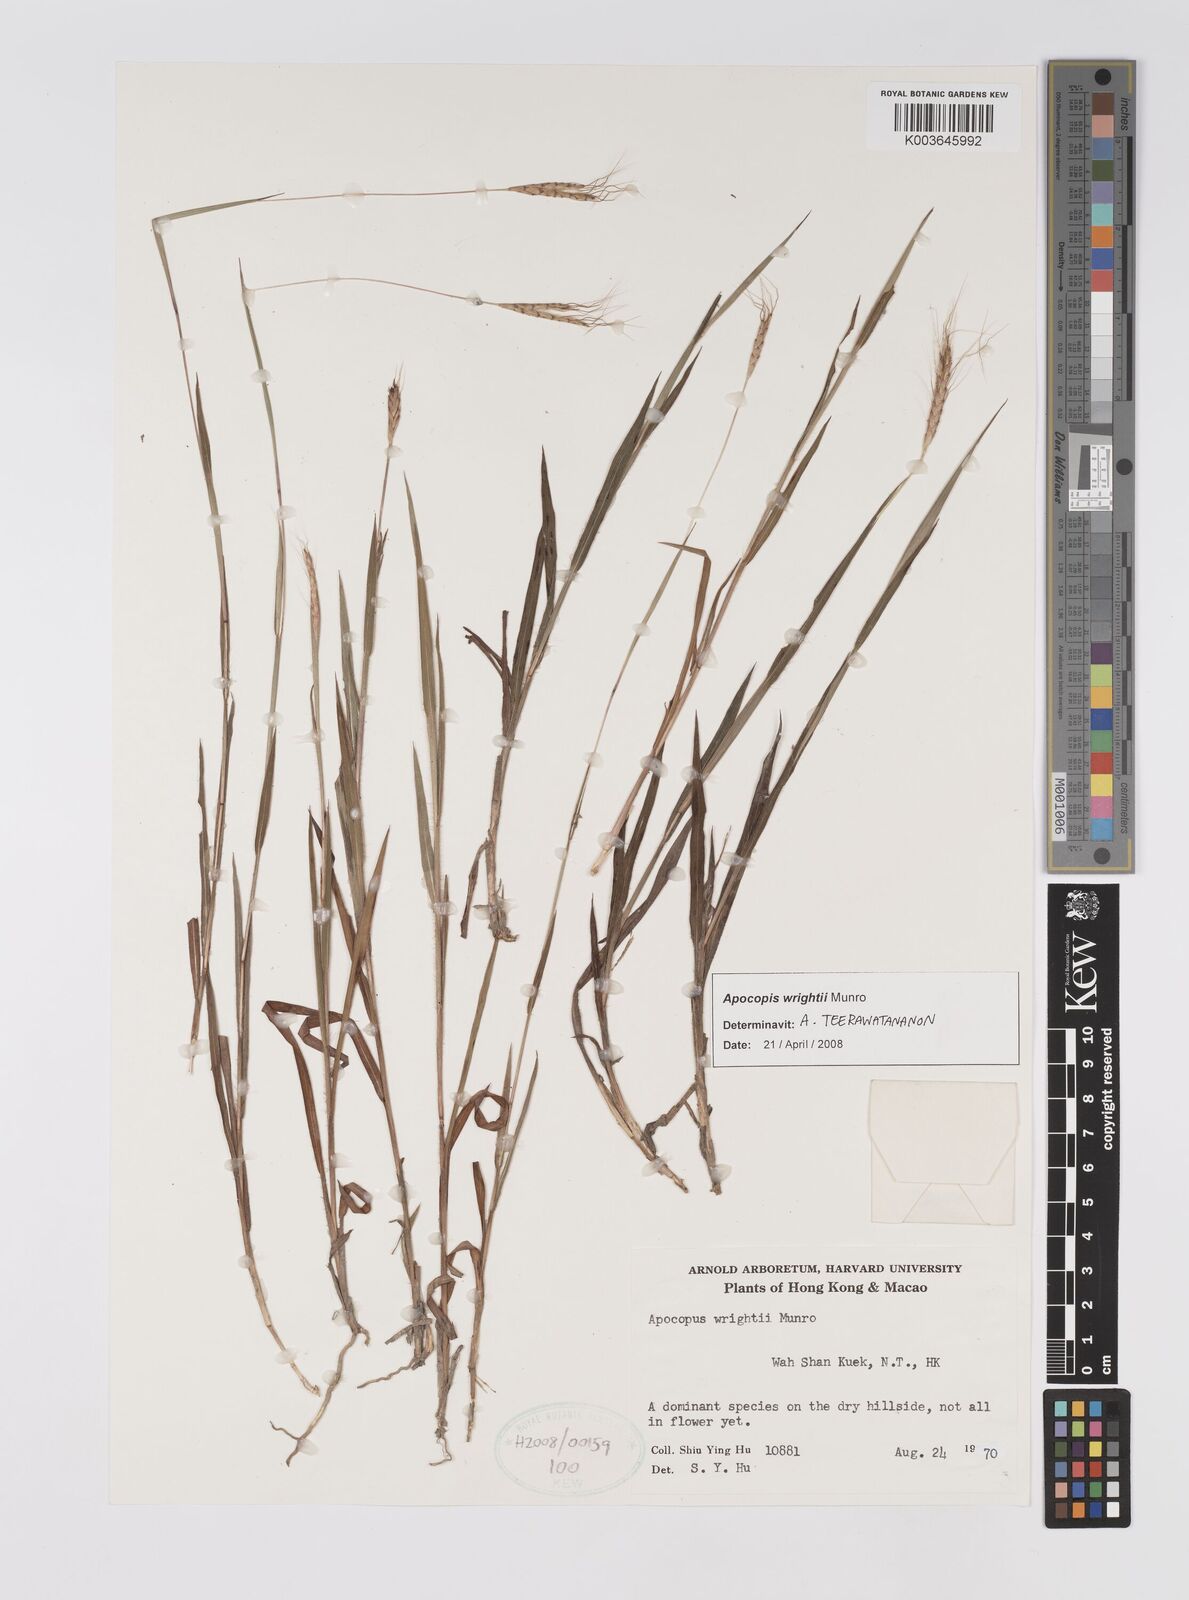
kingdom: Plantae
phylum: Tracheophyta
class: Liliopsida
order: Poales
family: Poaceae
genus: Apocopis
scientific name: Apocopis wrightii
